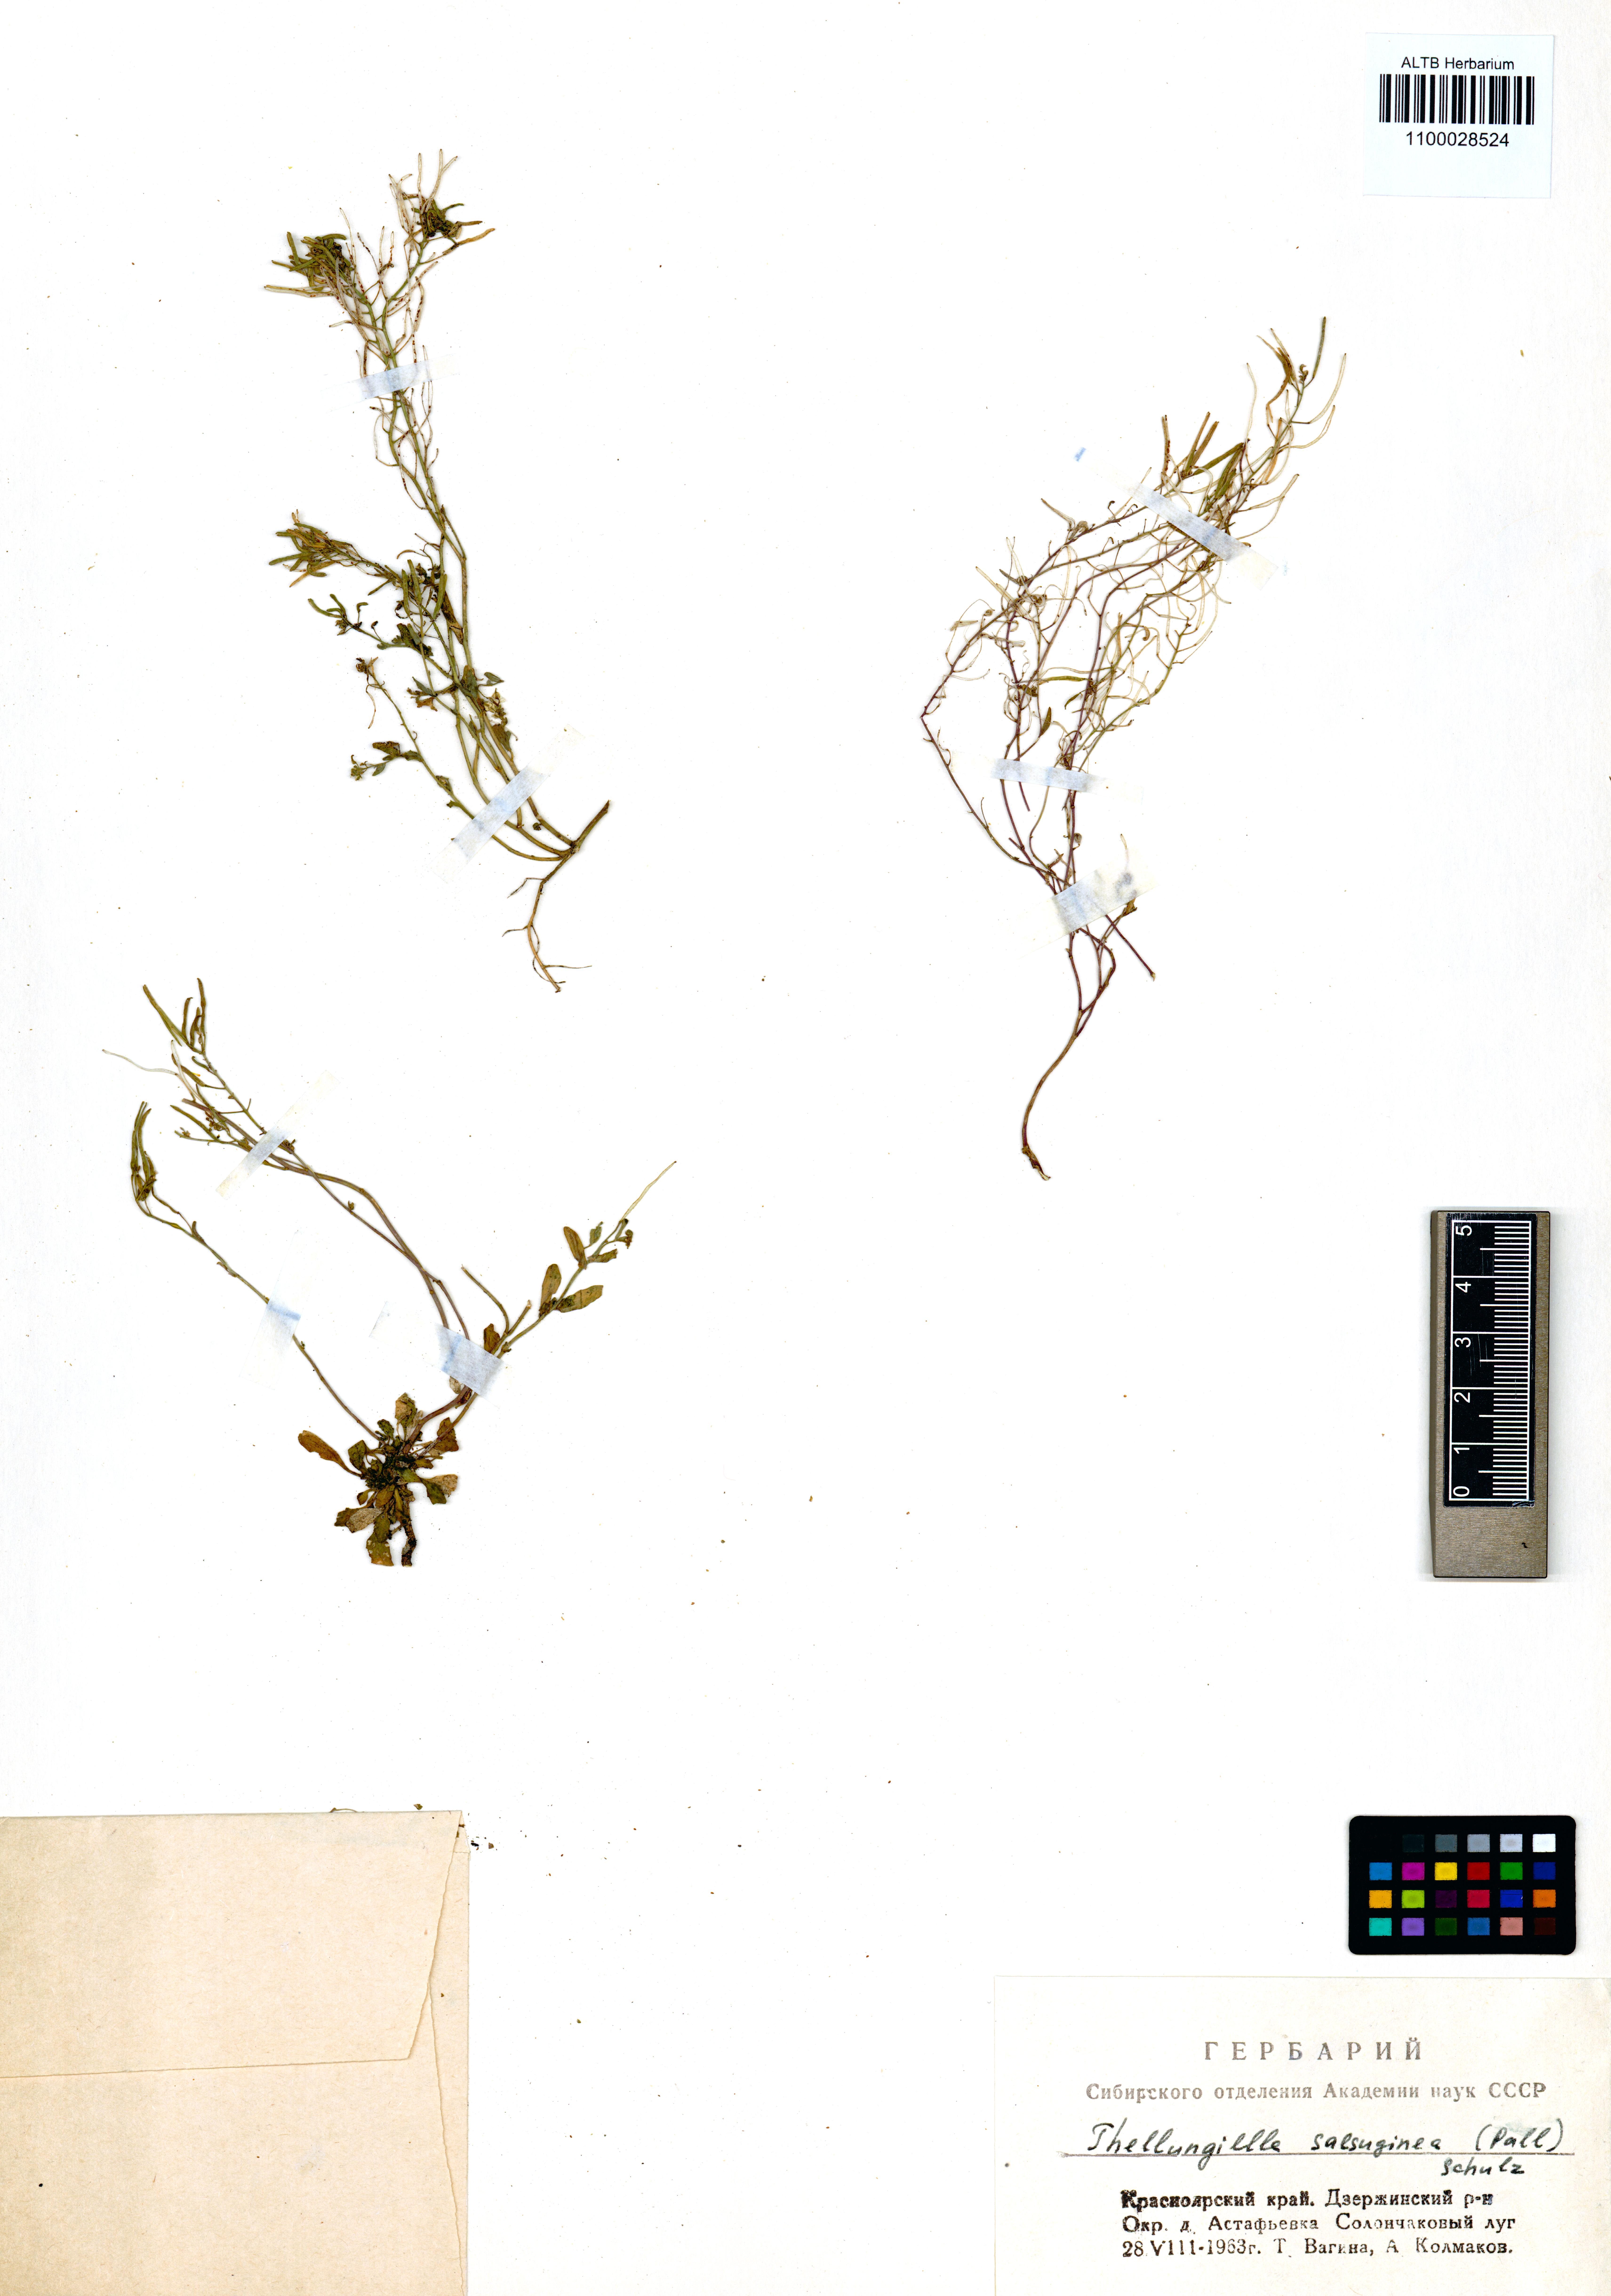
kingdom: Plantae
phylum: Tracheophyta
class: Magnoliopsida
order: Brassicales
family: Brassicaceae
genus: Eutrema
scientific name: Eutrema salsugineum
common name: Mouse-ear cress
